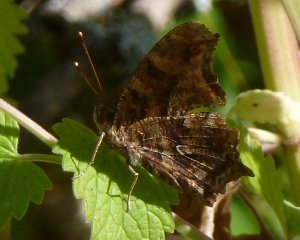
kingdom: Animalia
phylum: Arthropoda
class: Insecta
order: Lepidoptera
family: Nymphalidae
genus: Polygonia
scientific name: Polygonia interrogationis
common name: Question Mark
